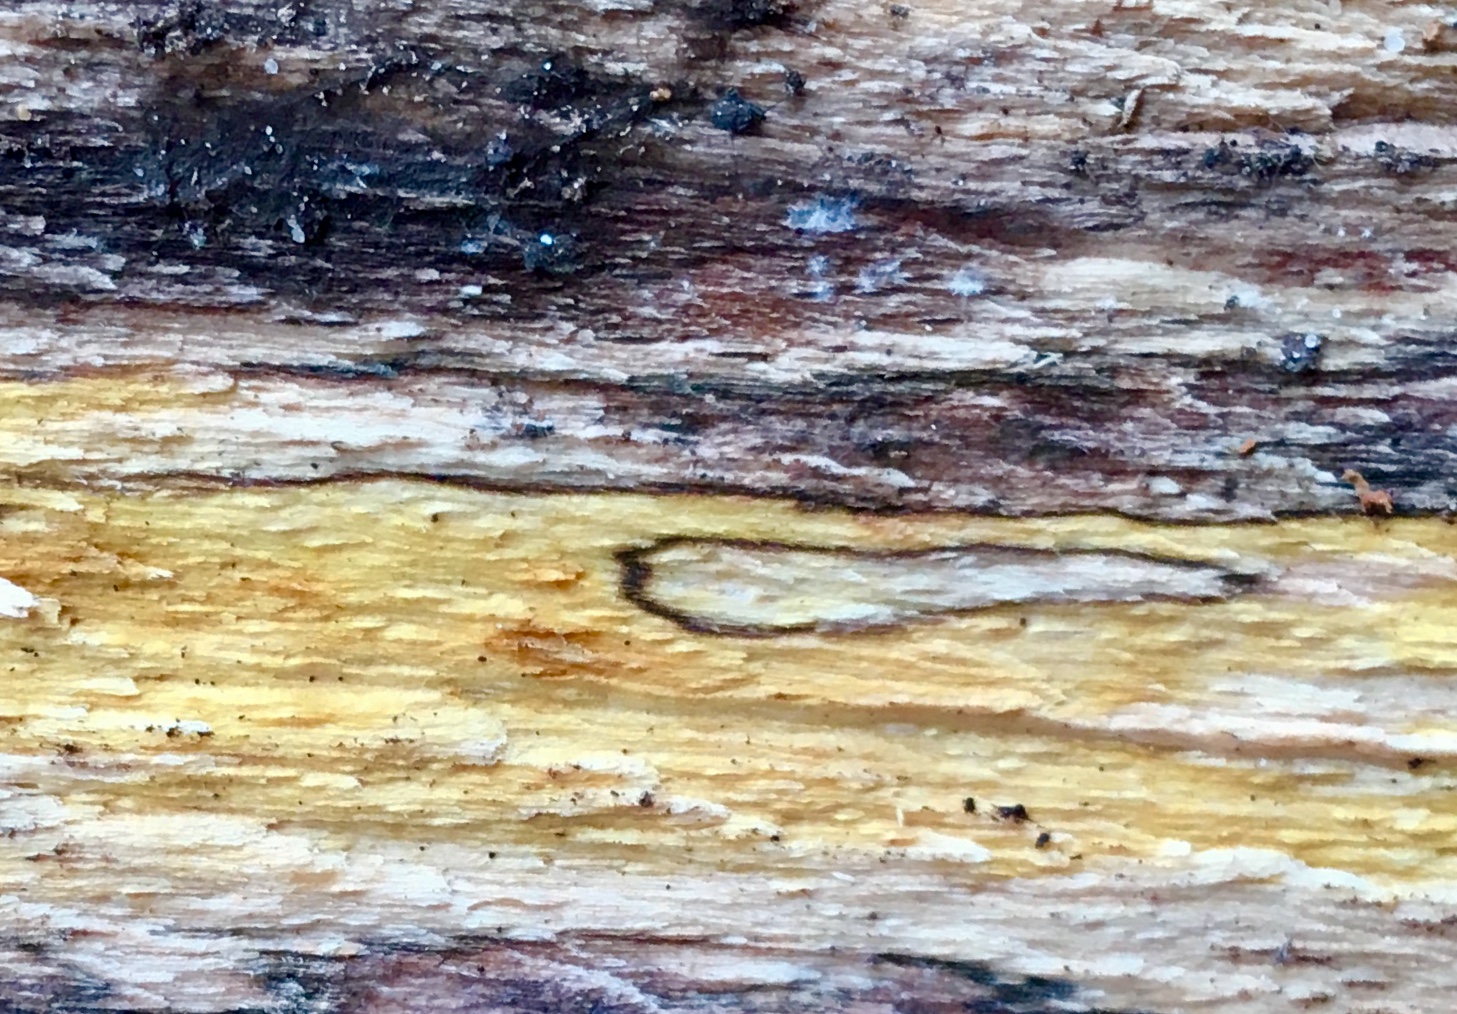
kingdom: Fungi
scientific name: Fungi
